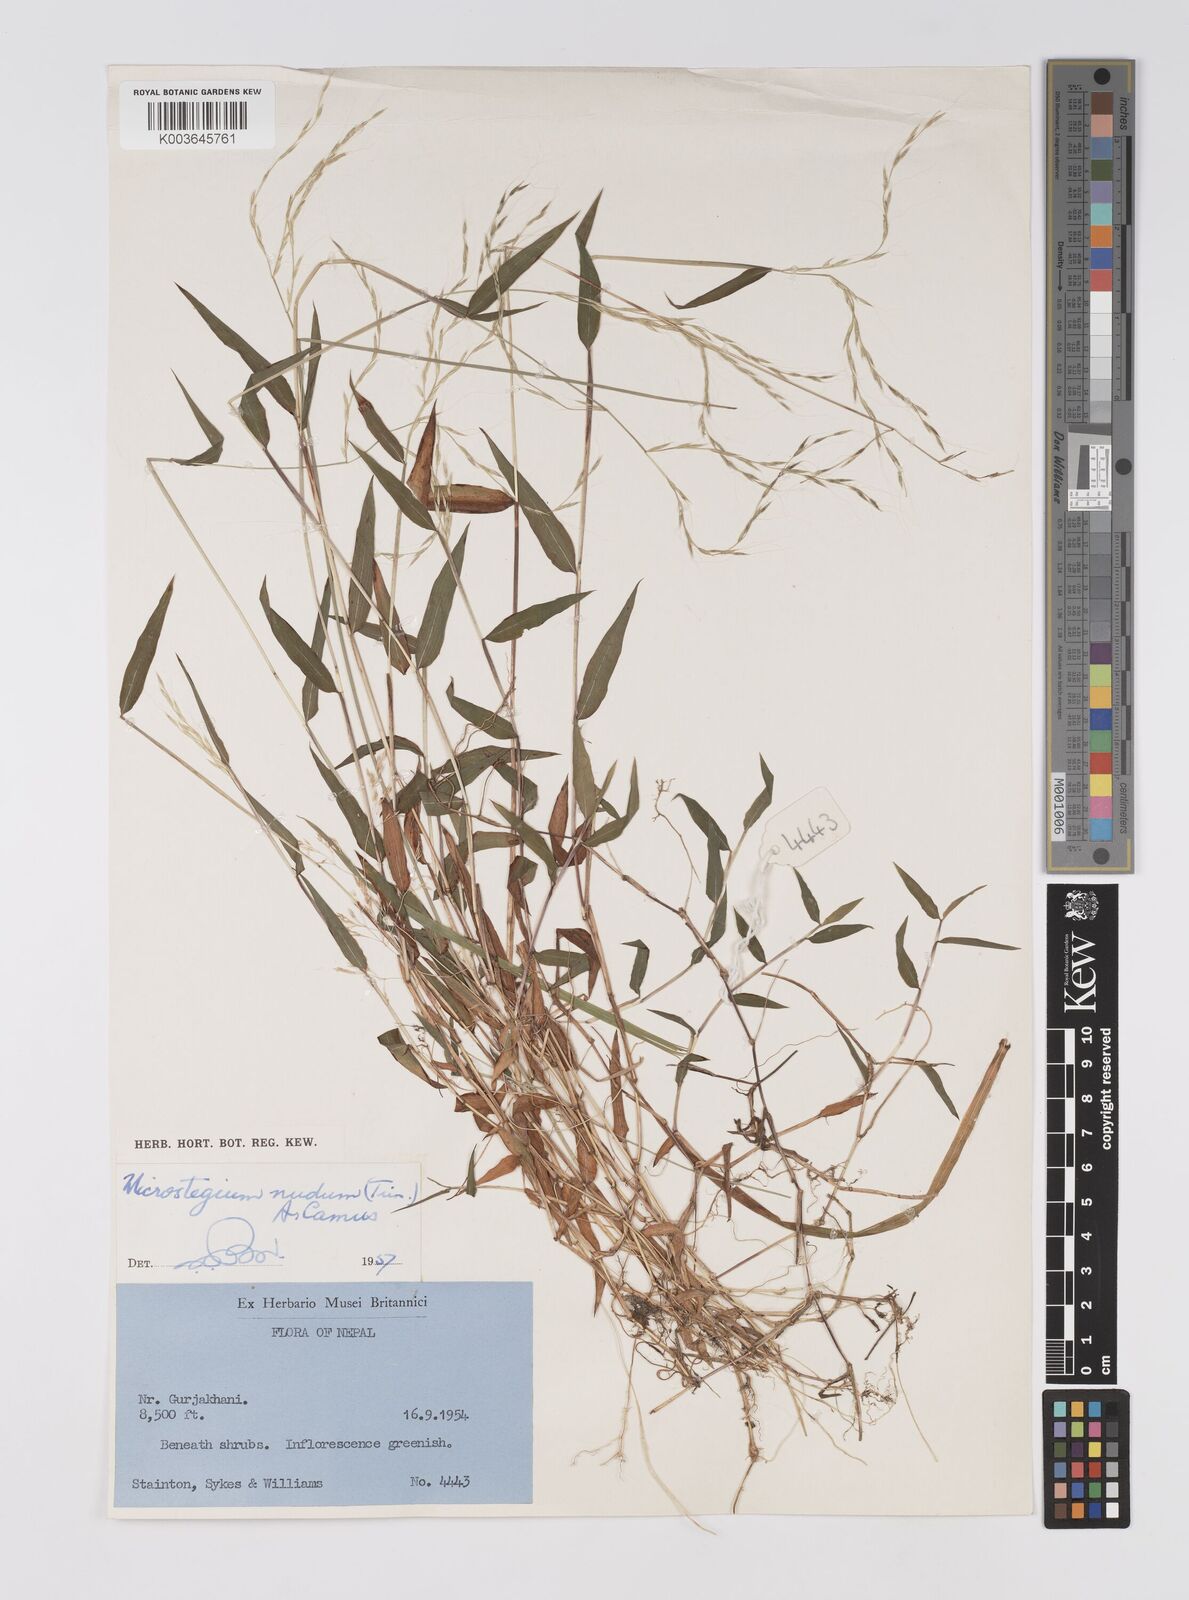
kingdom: Plantae
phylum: Tracheophyta
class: Liliopsida
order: Poales
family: Poaceae
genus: Microstegium
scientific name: Microstegium nudum
